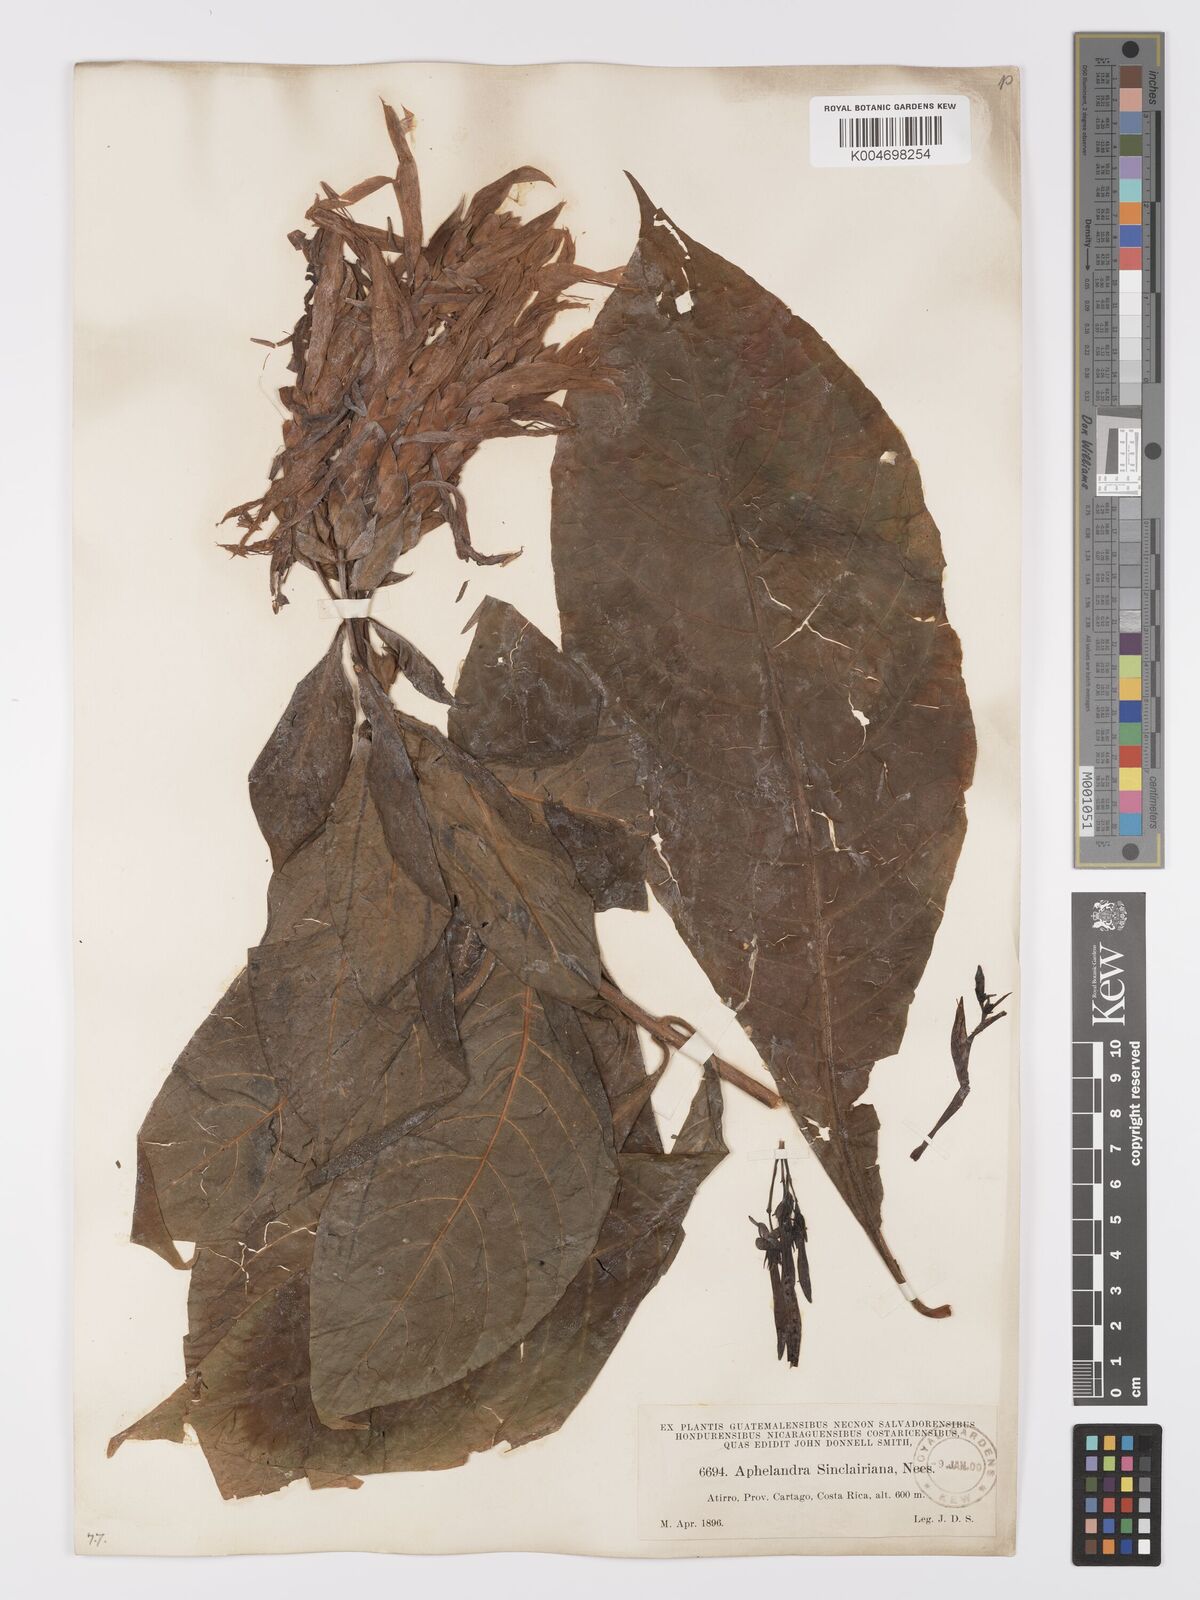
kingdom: Plantae
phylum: Tracheophyta
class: Magnoliopsida
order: Lamiales
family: Acanthaceae
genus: Aphelandra
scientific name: Aphelandra sinclairiana
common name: Coral aphelandra
